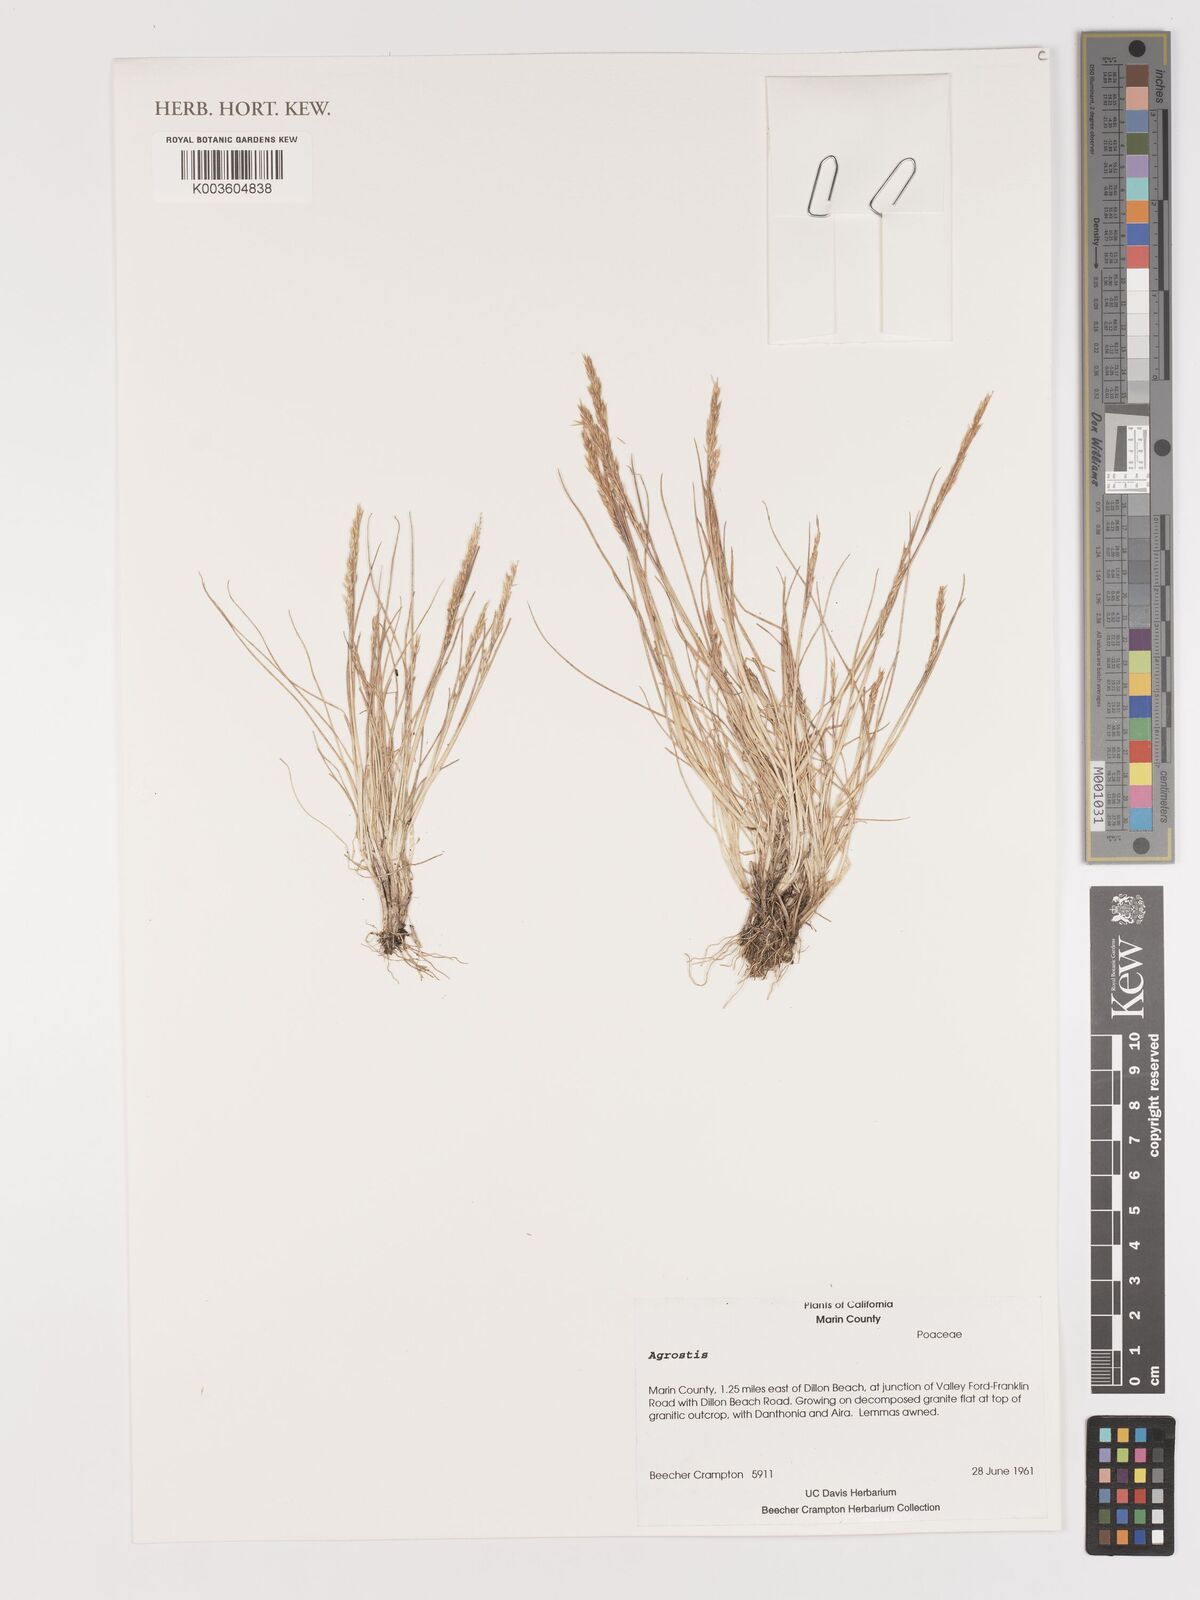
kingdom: Plantae
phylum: Tracheophyta
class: Liliopsida
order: Poales
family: Poaceae
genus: Agrostis
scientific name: Agrostis
